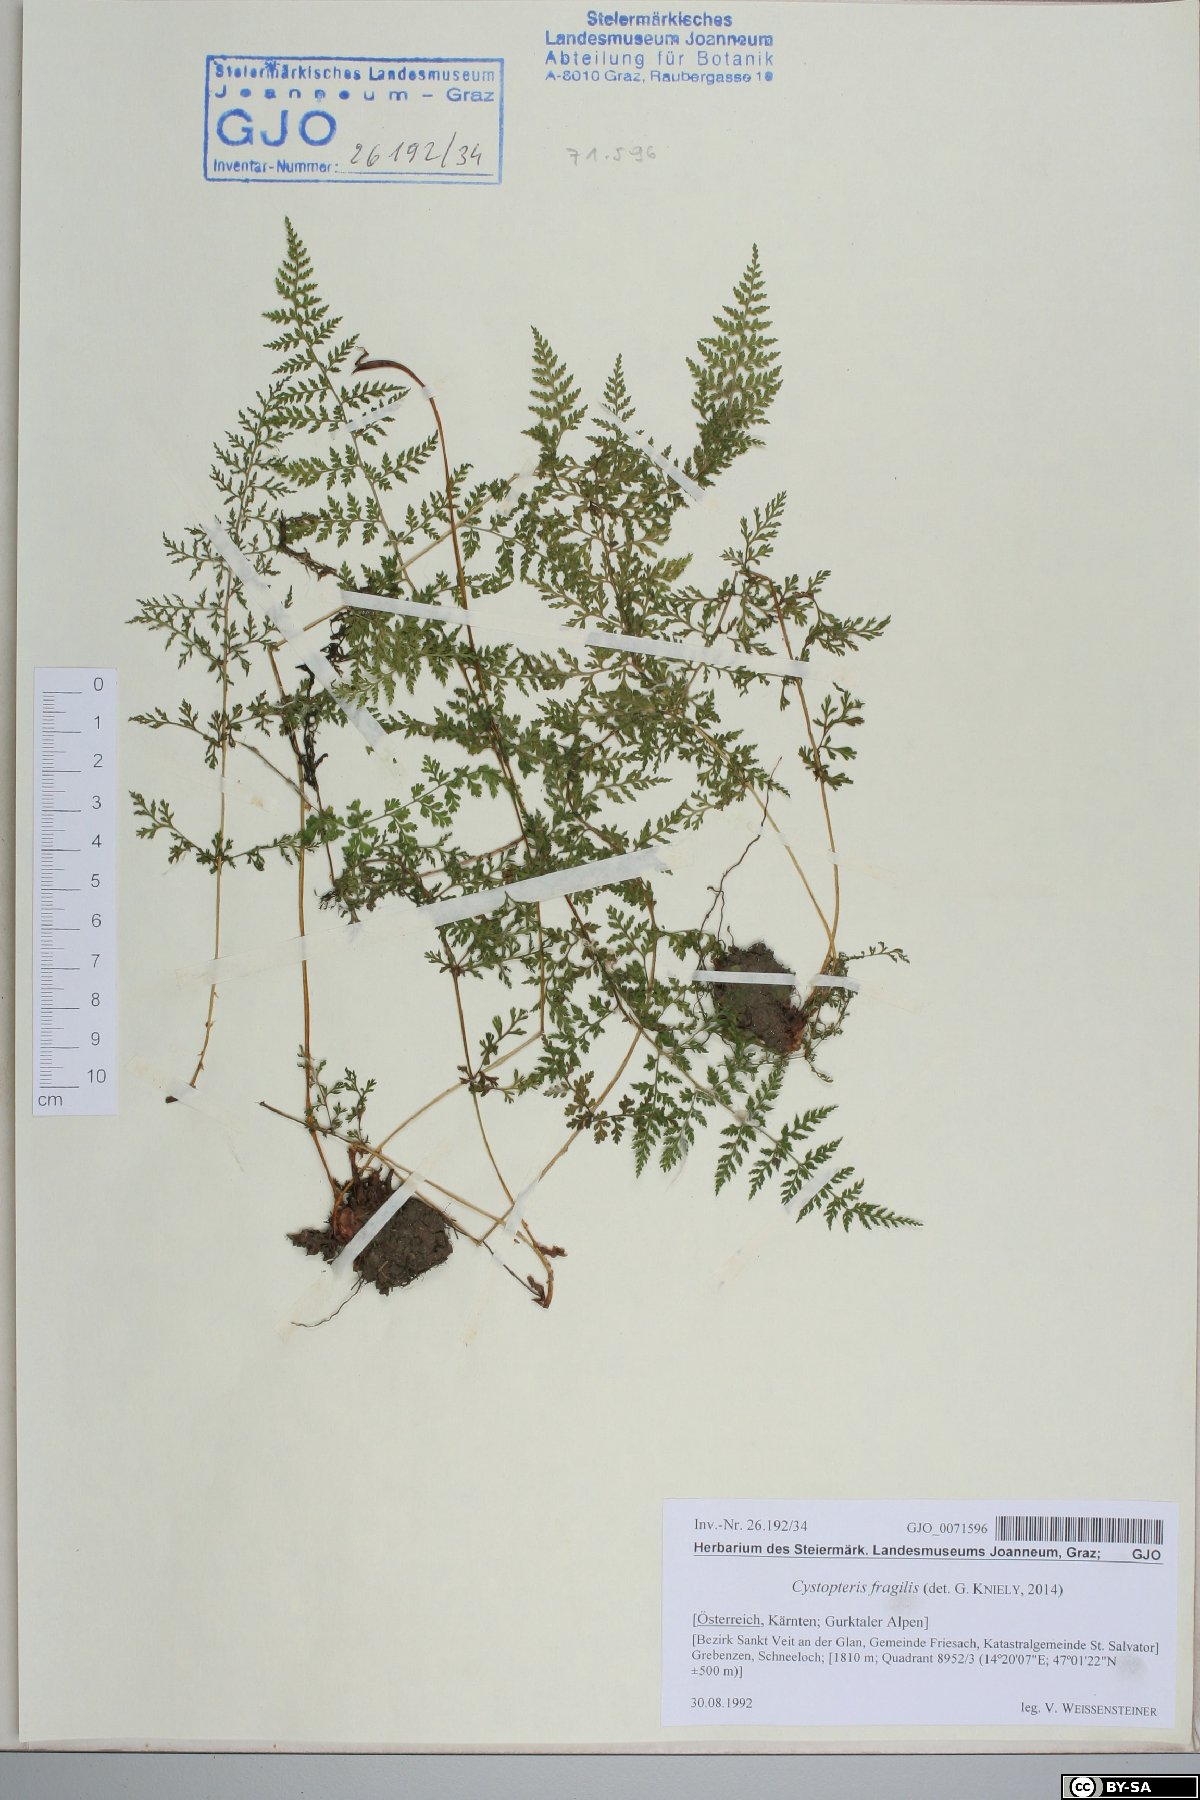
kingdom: Plantae
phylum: Tracheophyta
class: Polypodiopsida
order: Polypodiales
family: Cystopteridaceae
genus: Cystopteris
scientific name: Cystopteris fragilis
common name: Brittle bladder fern
